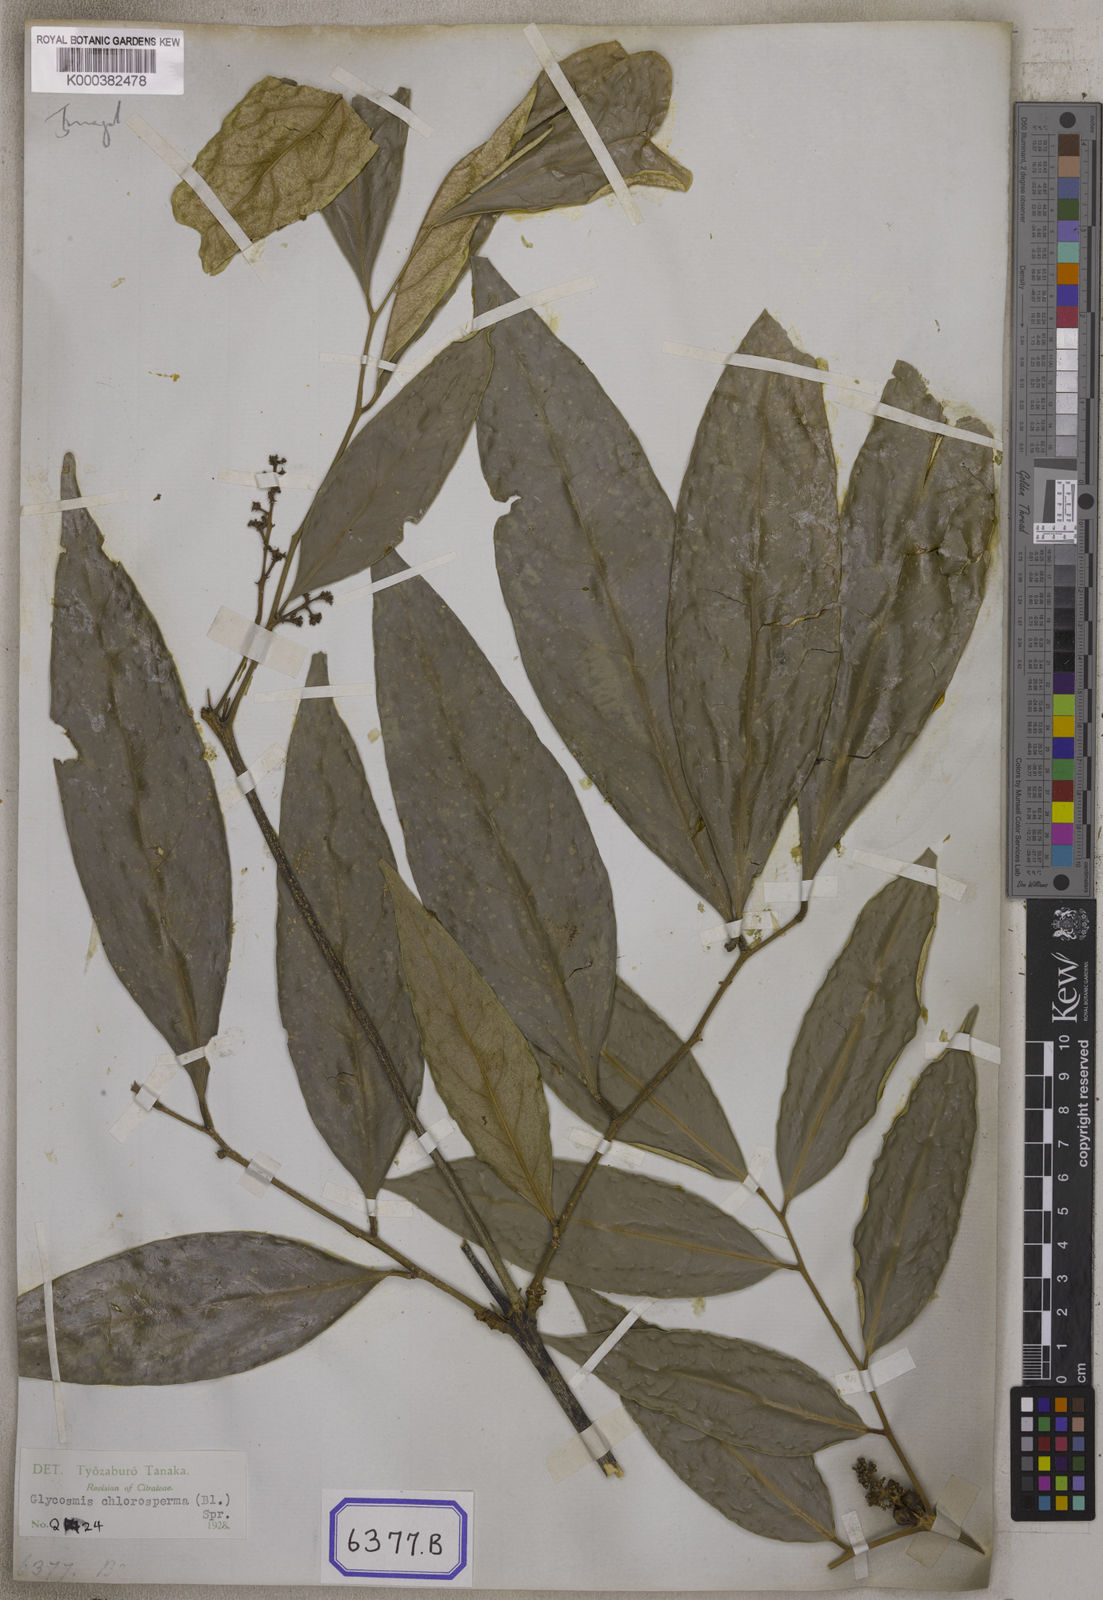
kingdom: Plantae
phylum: Tracheophyta
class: Magnoliopsida
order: Sapindales
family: Rutaceae
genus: Glycosmis
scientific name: Glycosmis chlorosperma
